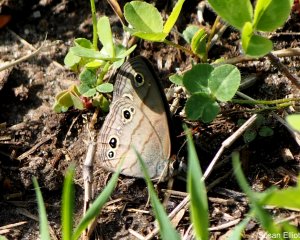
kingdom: Animalia
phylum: Arthropoda
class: Insecta
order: Lepidoptera
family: Nymphalidae
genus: Euptychia
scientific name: Euptychia cymela
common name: Little Wood Satyr
